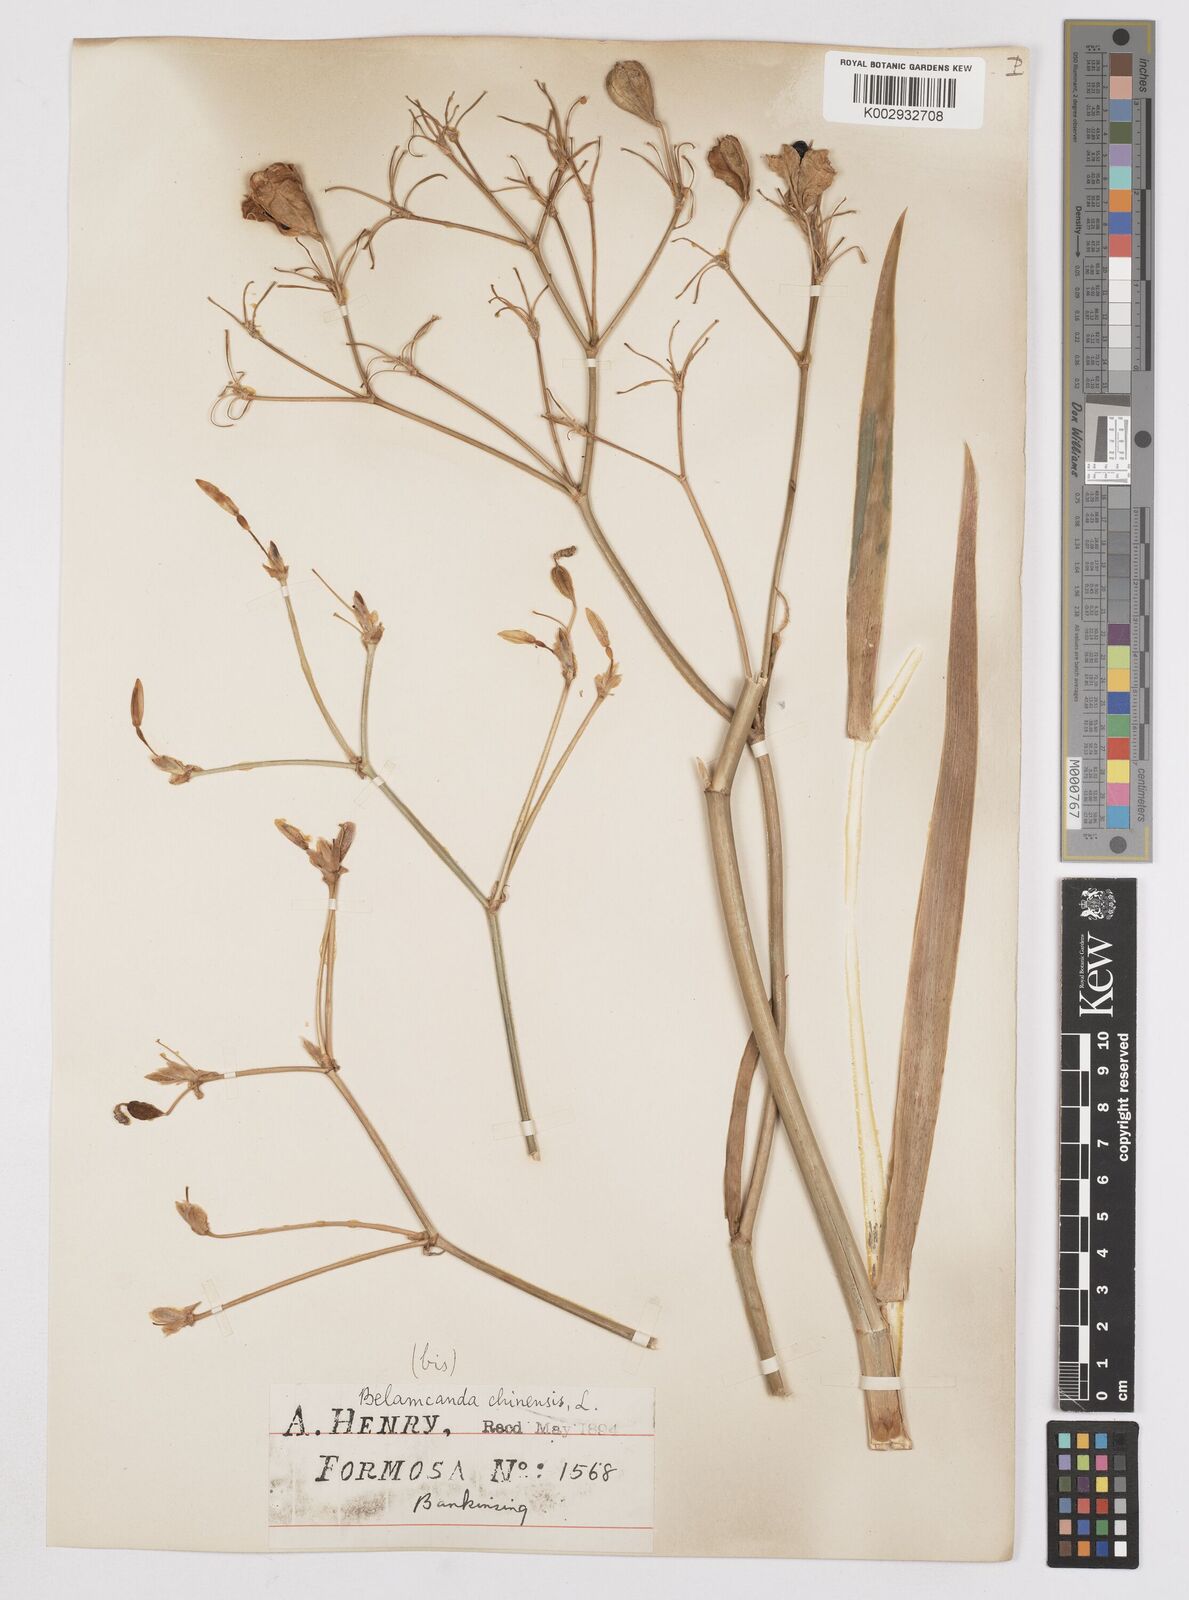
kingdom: Plantae
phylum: Tracheophyta
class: Liliopsida
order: Asparagales
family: Iridaceae
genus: Iris
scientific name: Iris
